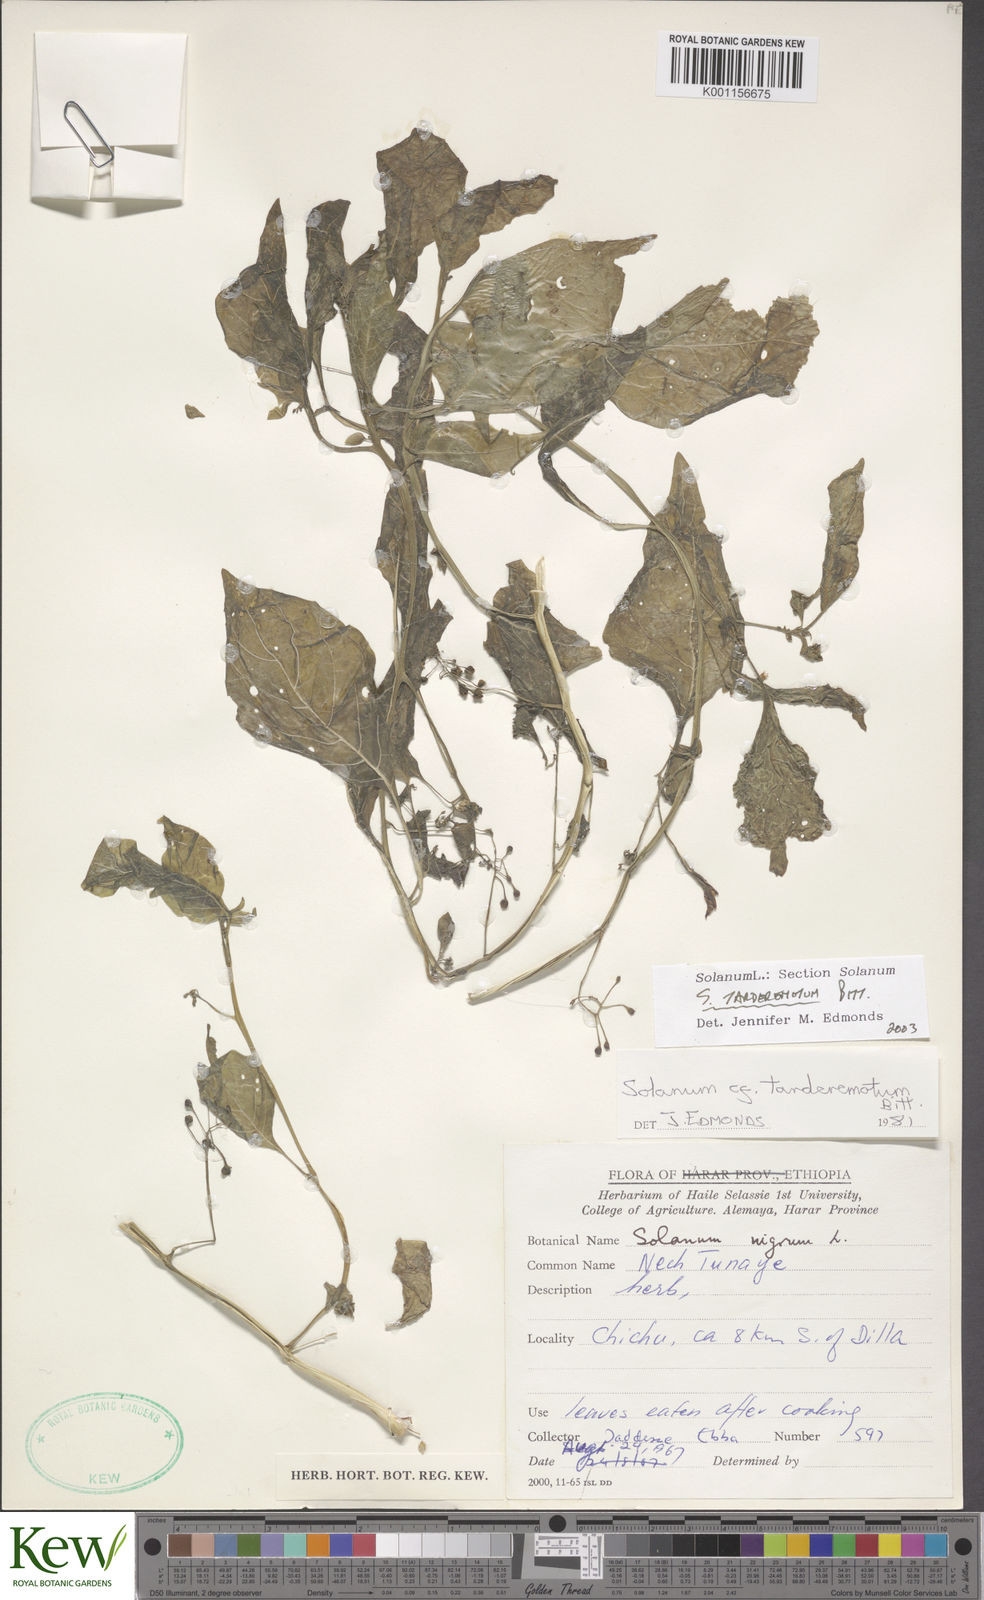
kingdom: Plantae
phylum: Tracheophyta
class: Magnoliopsida
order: Solanales
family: Solanaceae
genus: Solanum
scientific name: Solanum tarderemotum
